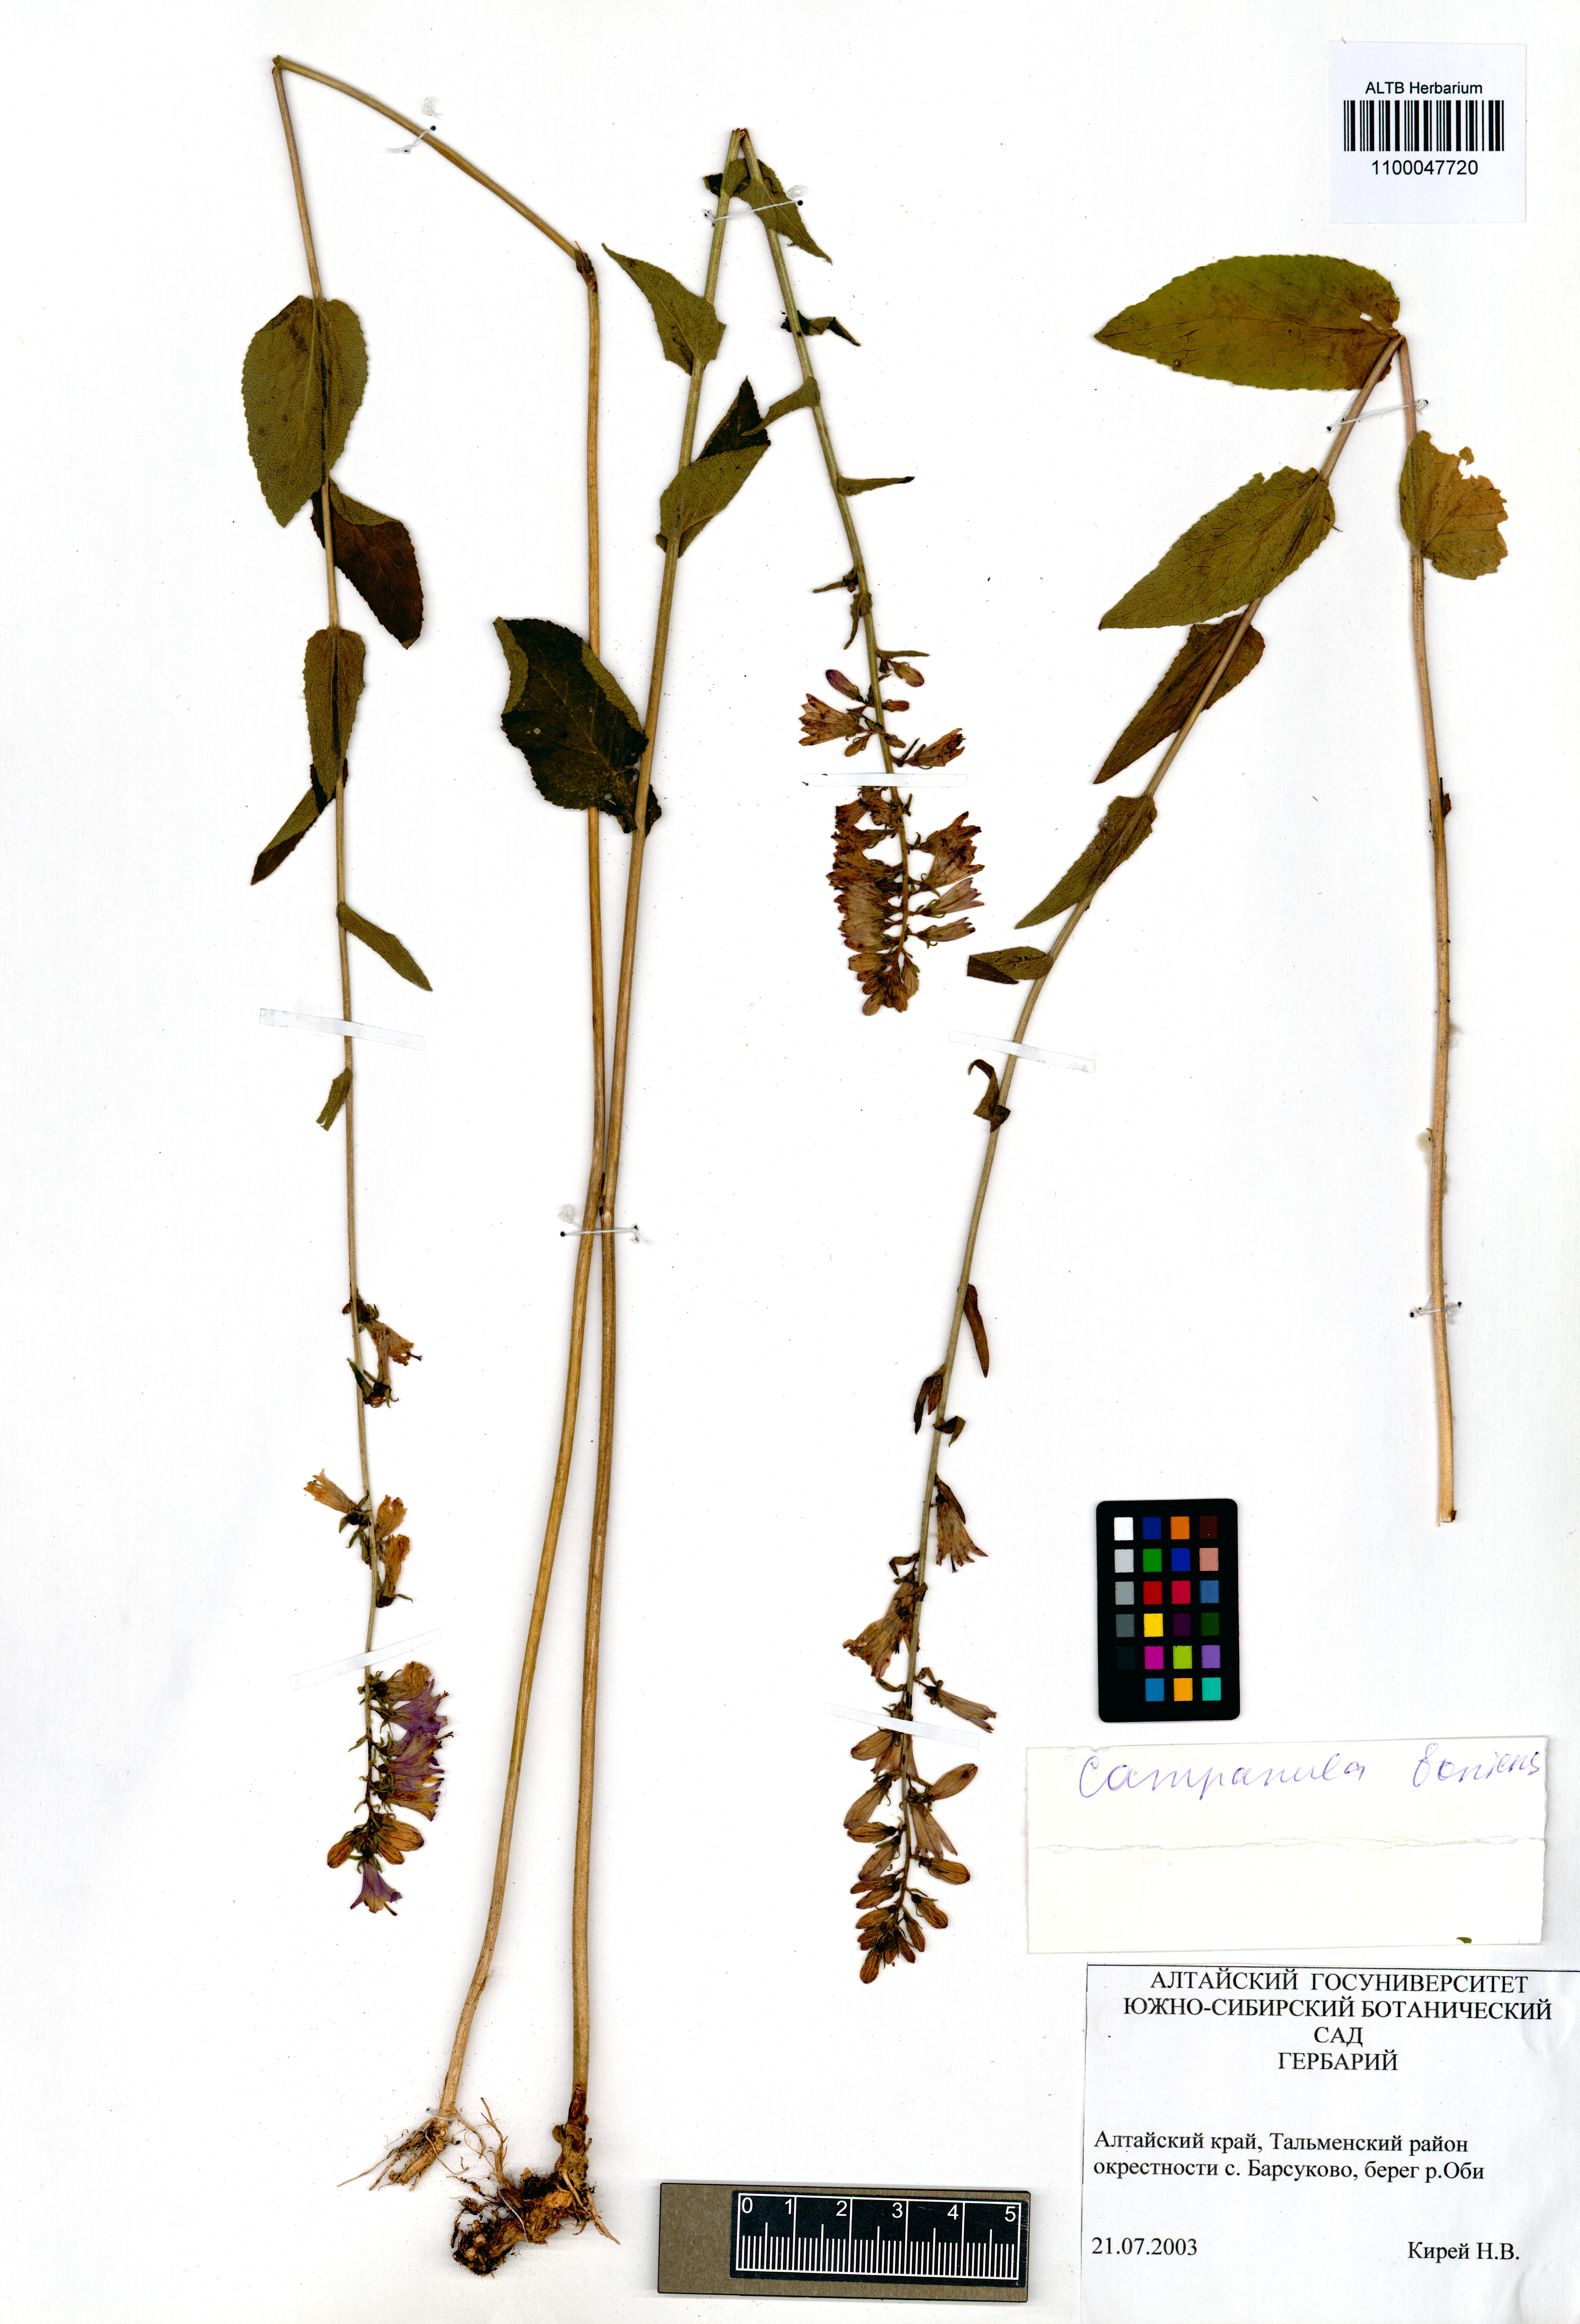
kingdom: Plantae
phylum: Tracheophyta
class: Magnoliopsida
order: Asterales
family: Campanulaceae
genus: Campanula
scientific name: Campanula bononiensis
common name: Pale bellflower
